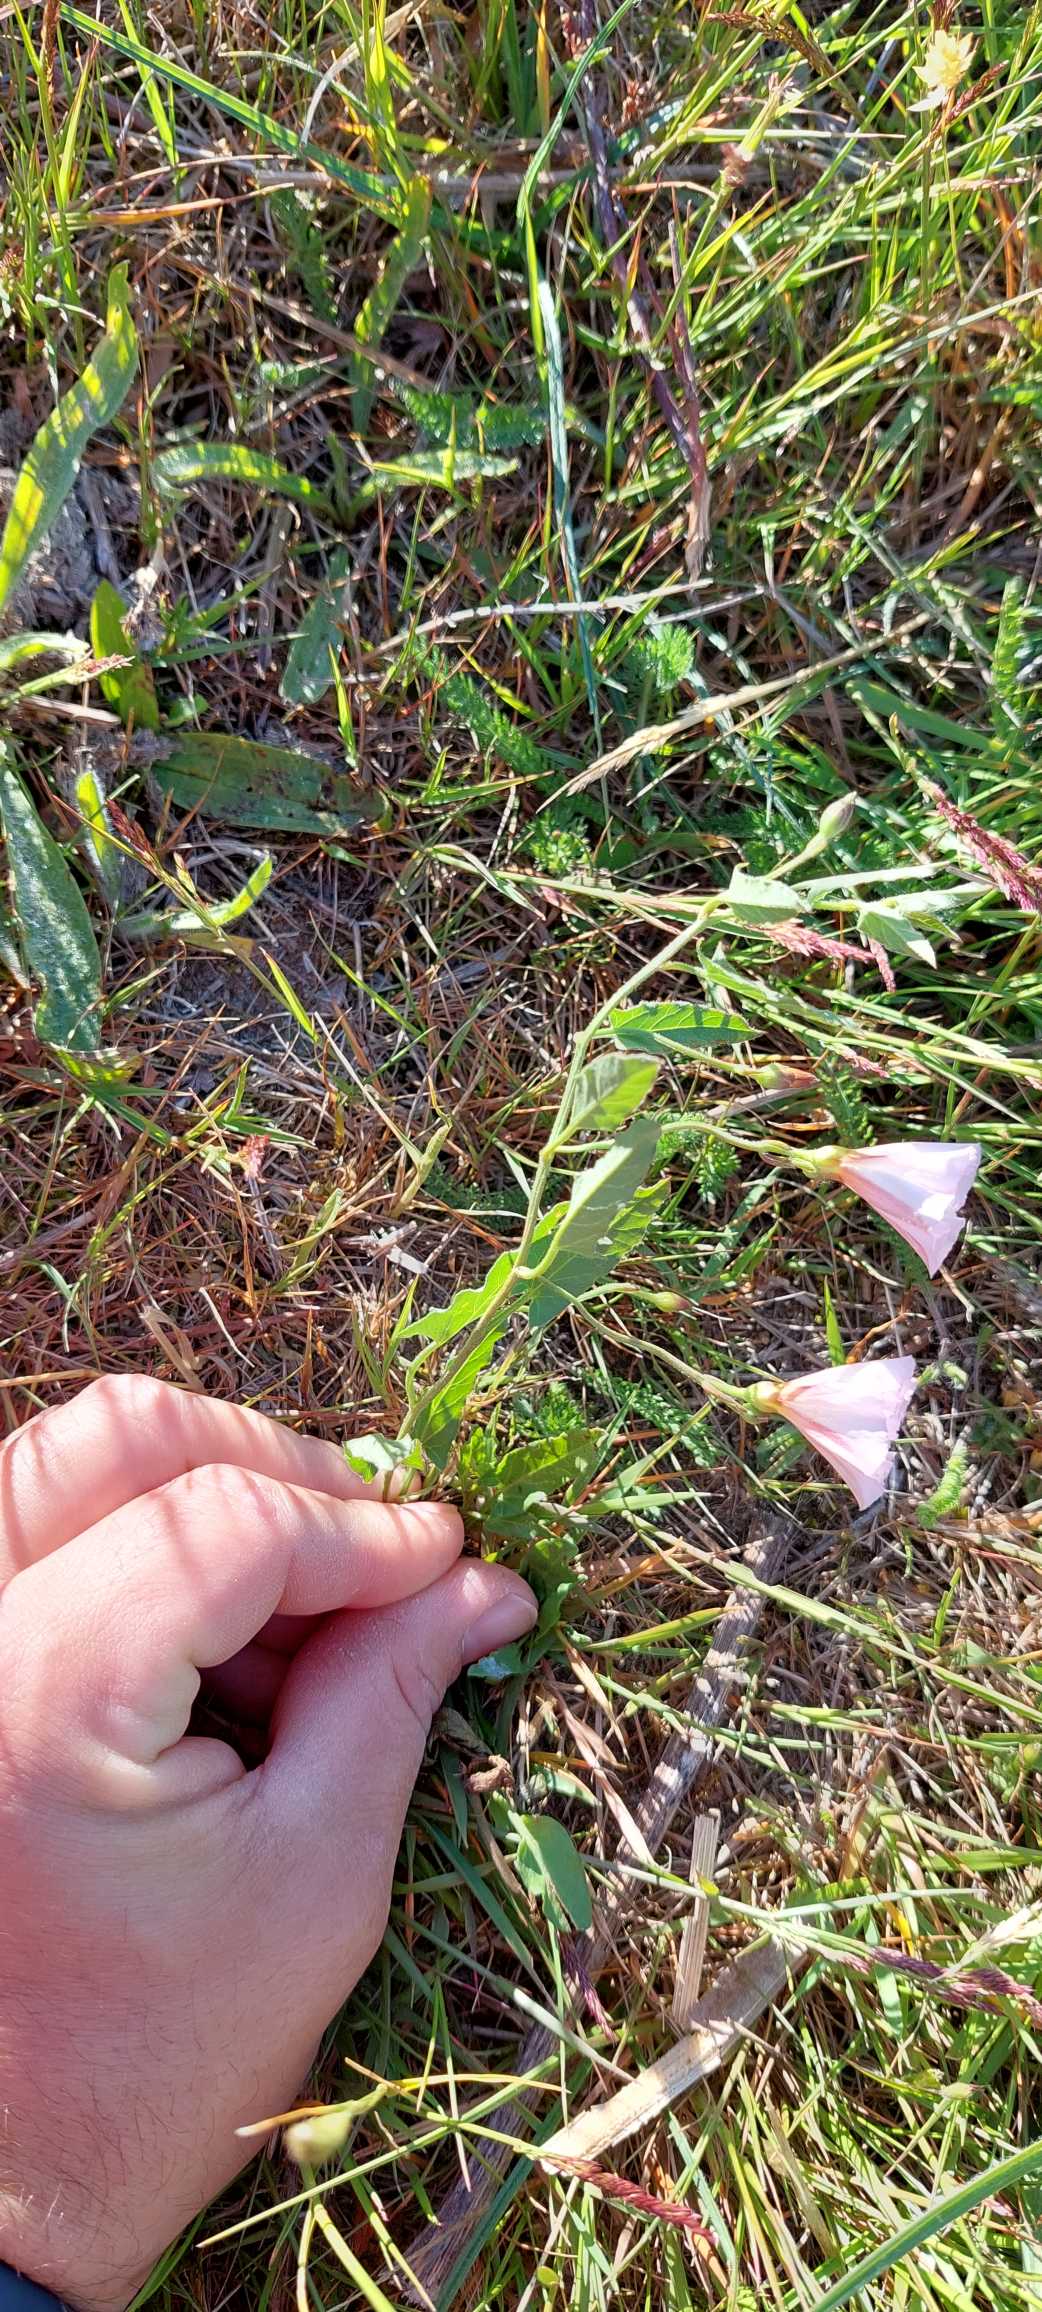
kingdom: Plantae
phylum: Tracheophyta
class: Magnoliopsida
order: Solanales
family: Convolvulaceae
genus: Convolvulus
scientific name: Convolvulus arvensis
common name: Ager-snerle
